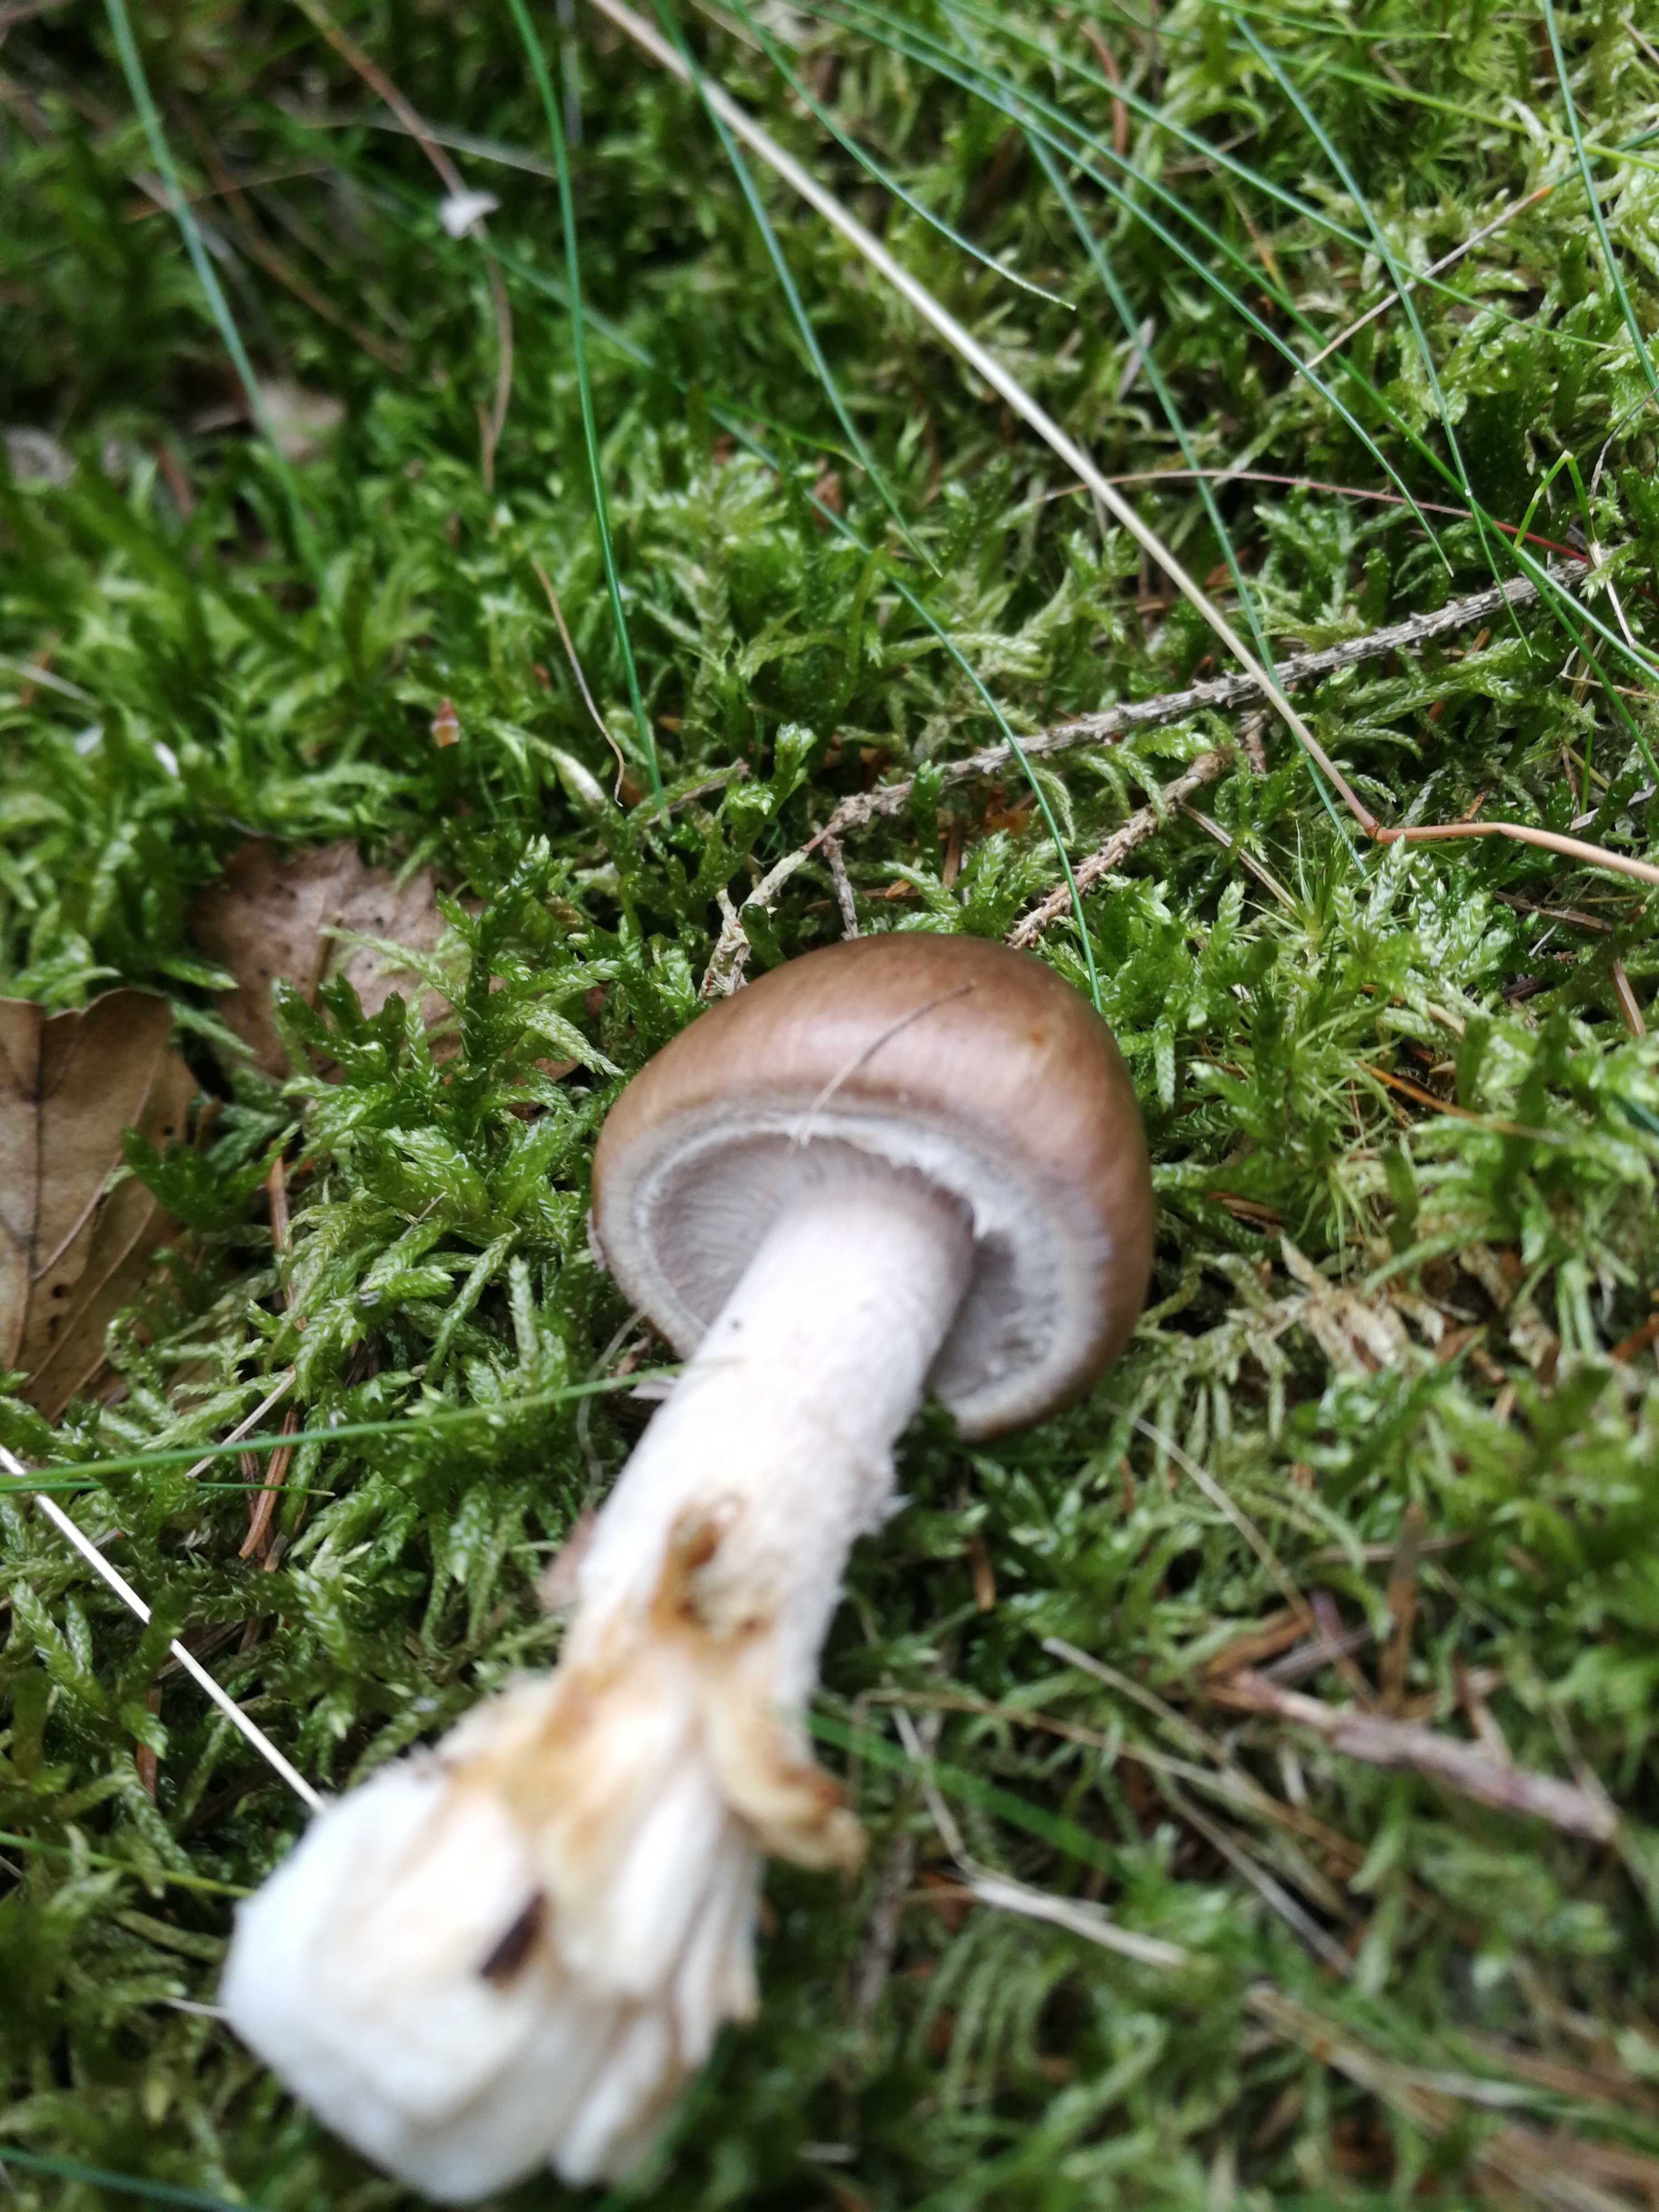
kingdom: Fungi
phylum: Basidiomycota
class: Agaricomycetes
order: Agaricales
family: Amanitaceae
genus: Amanita
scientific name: Amanita porphyria
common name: porfyr-fluesvamp
